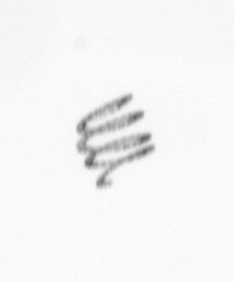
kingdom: Chromista
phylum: Ochrophyta
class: Bacillariophyceae
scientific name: Bacillariophyceae
